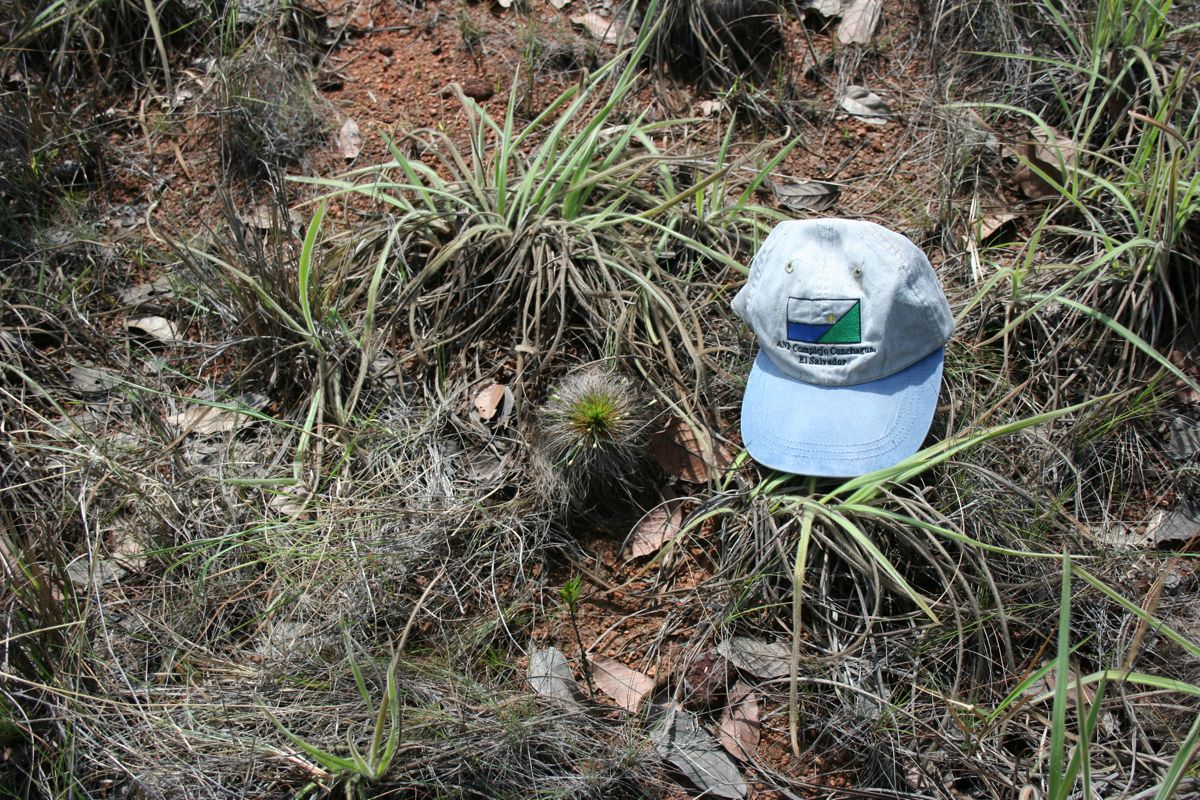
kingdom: Plantae
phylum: Tracheophyta
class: Liliopsida
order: Poales
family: Cyperaceae
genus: Bulbostylis
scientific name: Bulbostylis paradoxa
